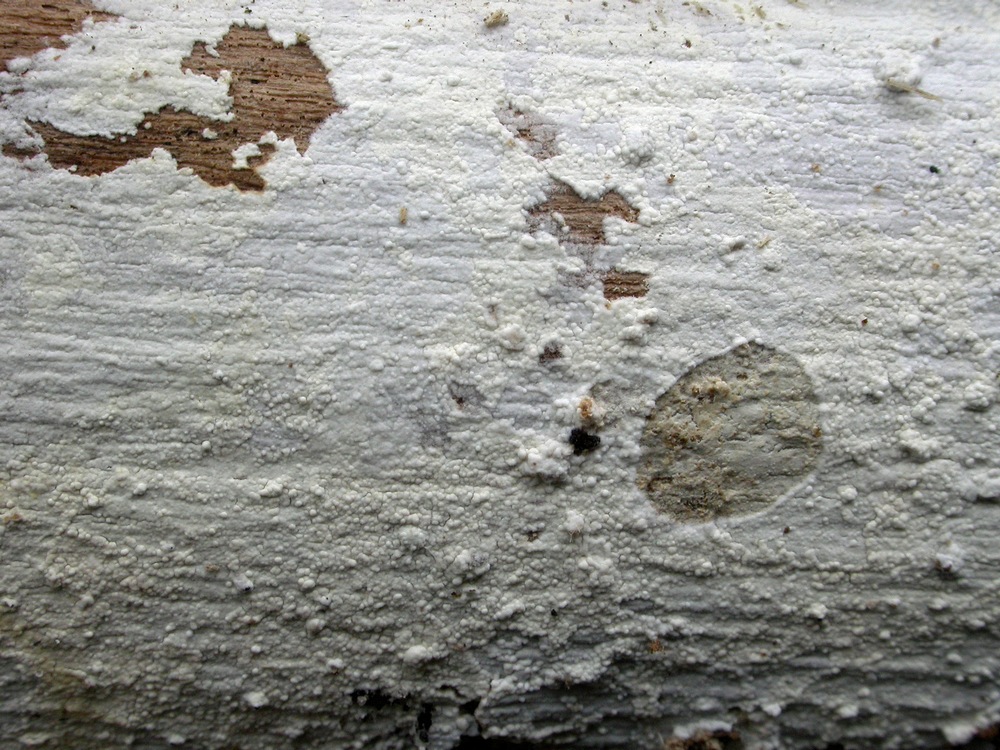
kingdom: Fungi
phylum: Basidiomycota
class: Agaricomycetes
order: Corticiales
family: Corticiaceae
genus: Lyomyces
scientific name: Lyomyces sambuci
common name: almindelig hyldehinde
